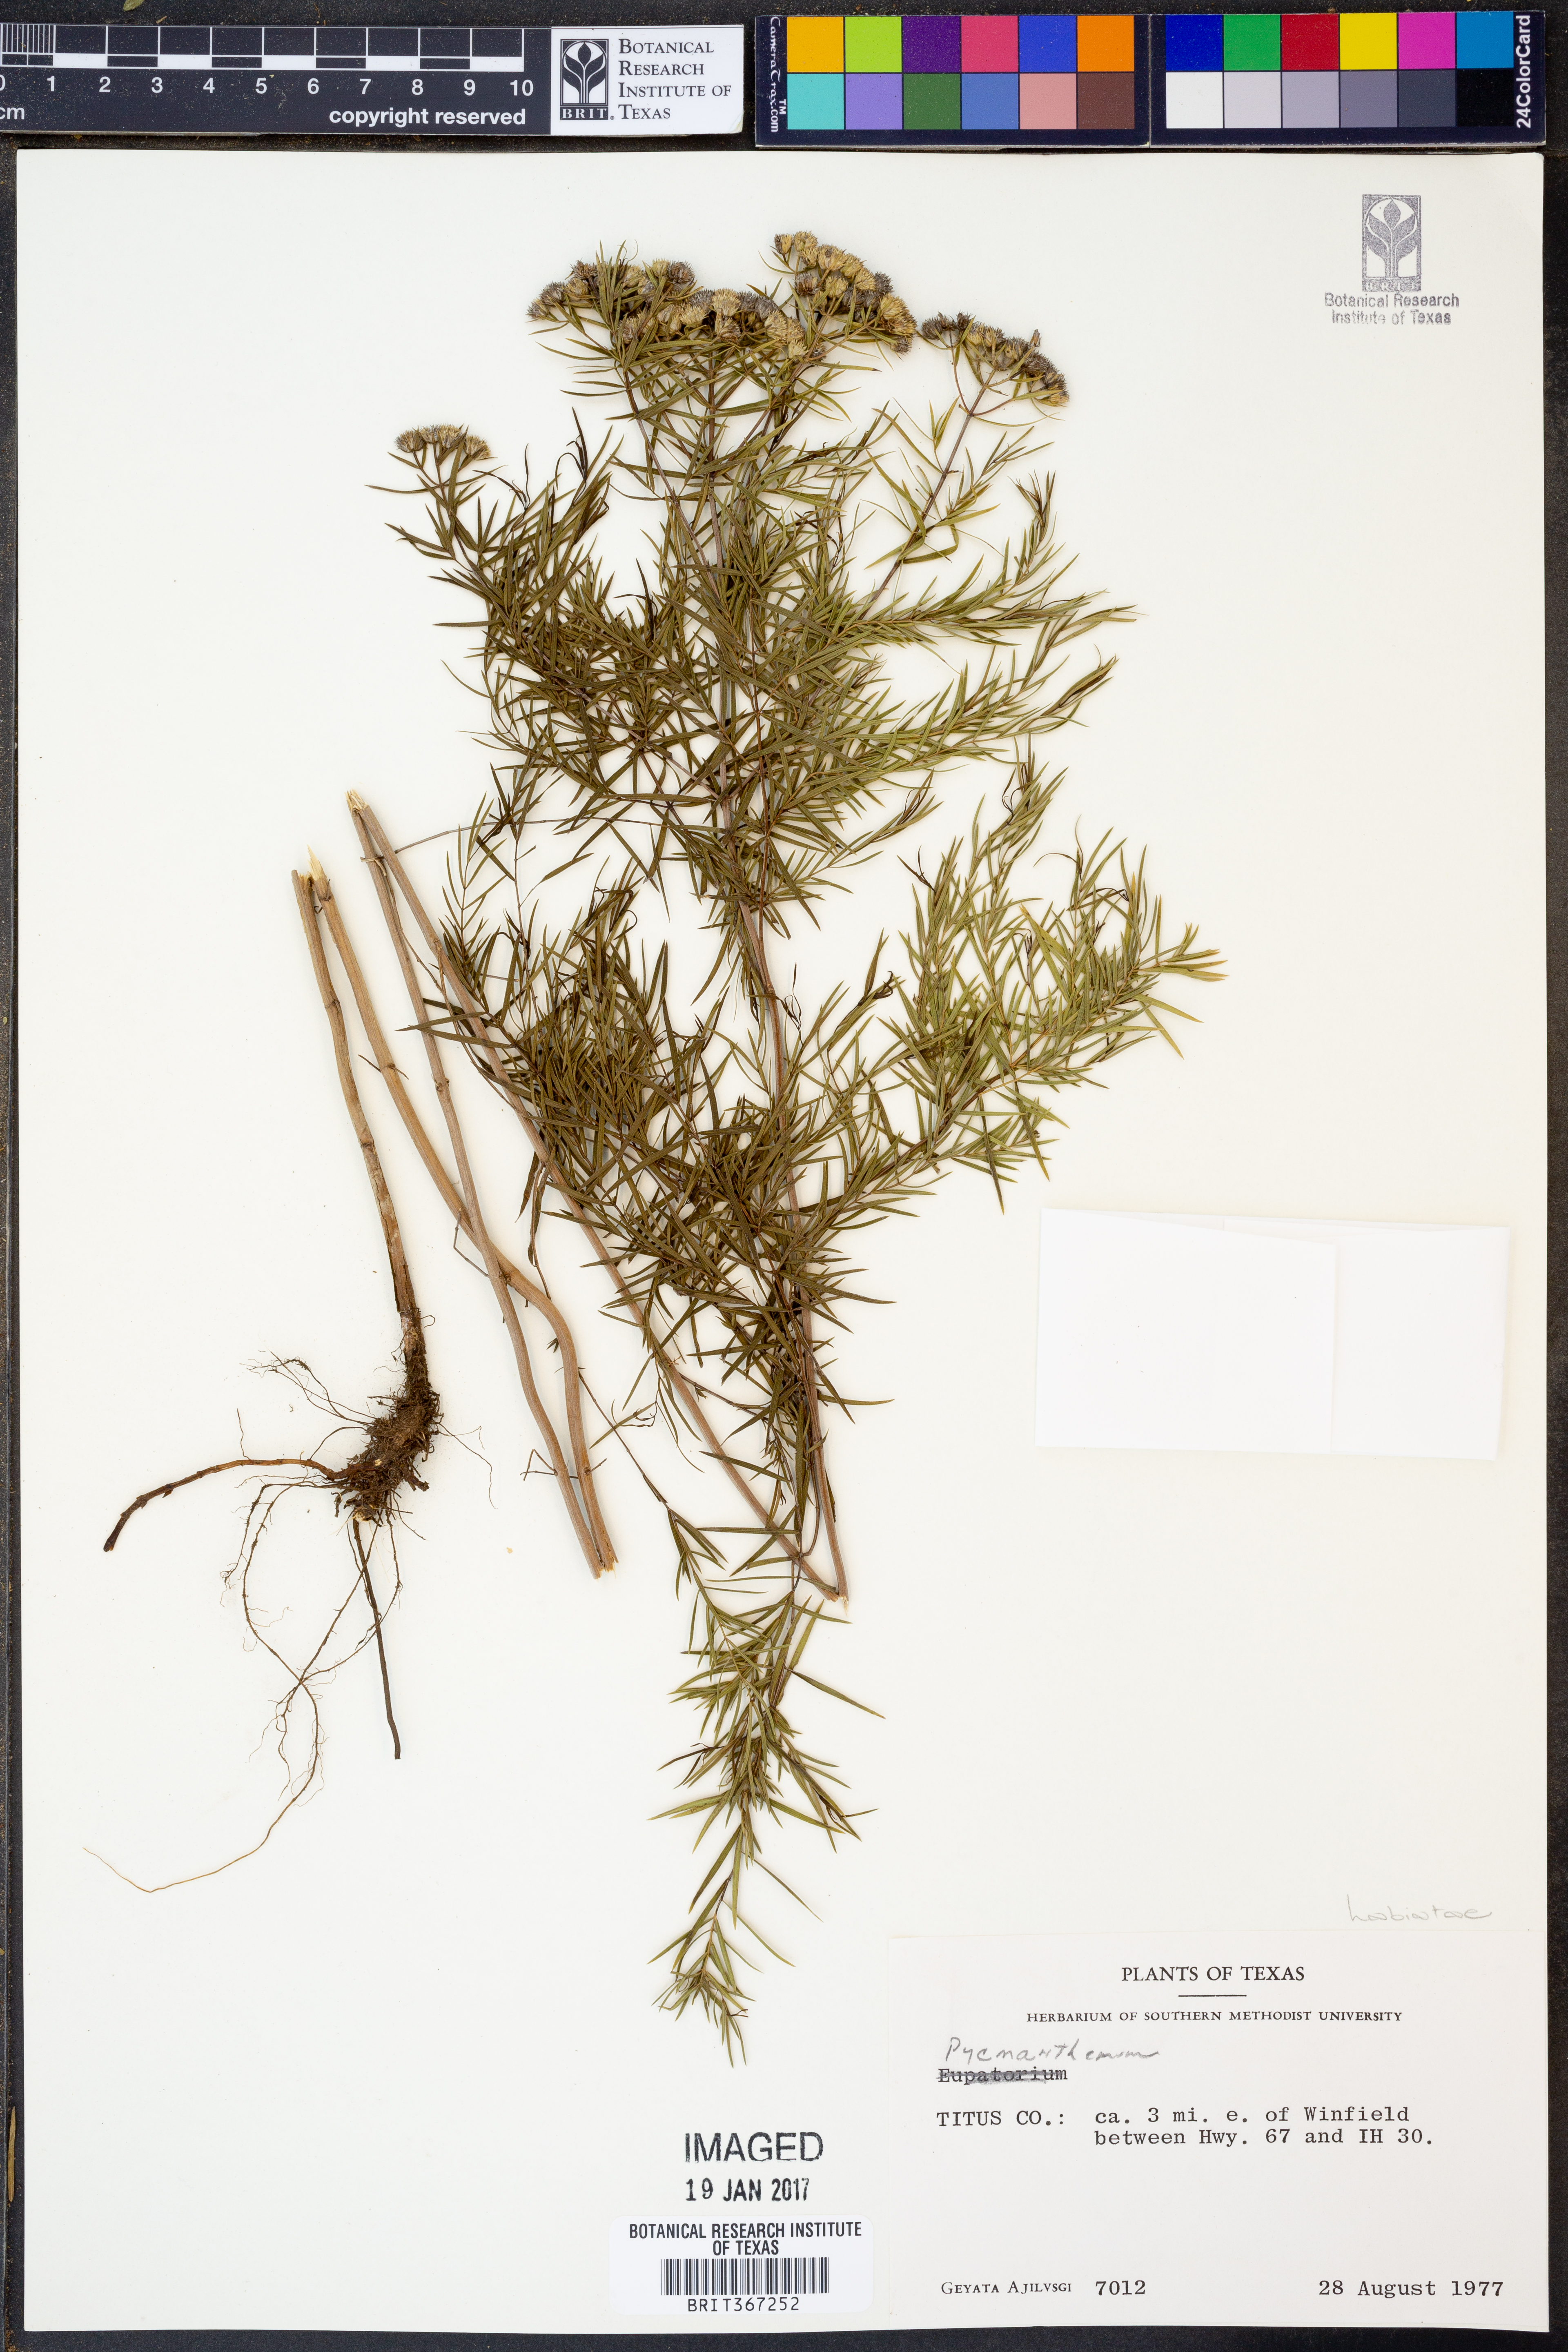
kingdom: Plantae
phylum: Tracheophyta
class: Magnoliopsida
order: Lamiales
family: Lamiaceae
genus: Pycnanthemum
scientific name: Pycnanthemum
